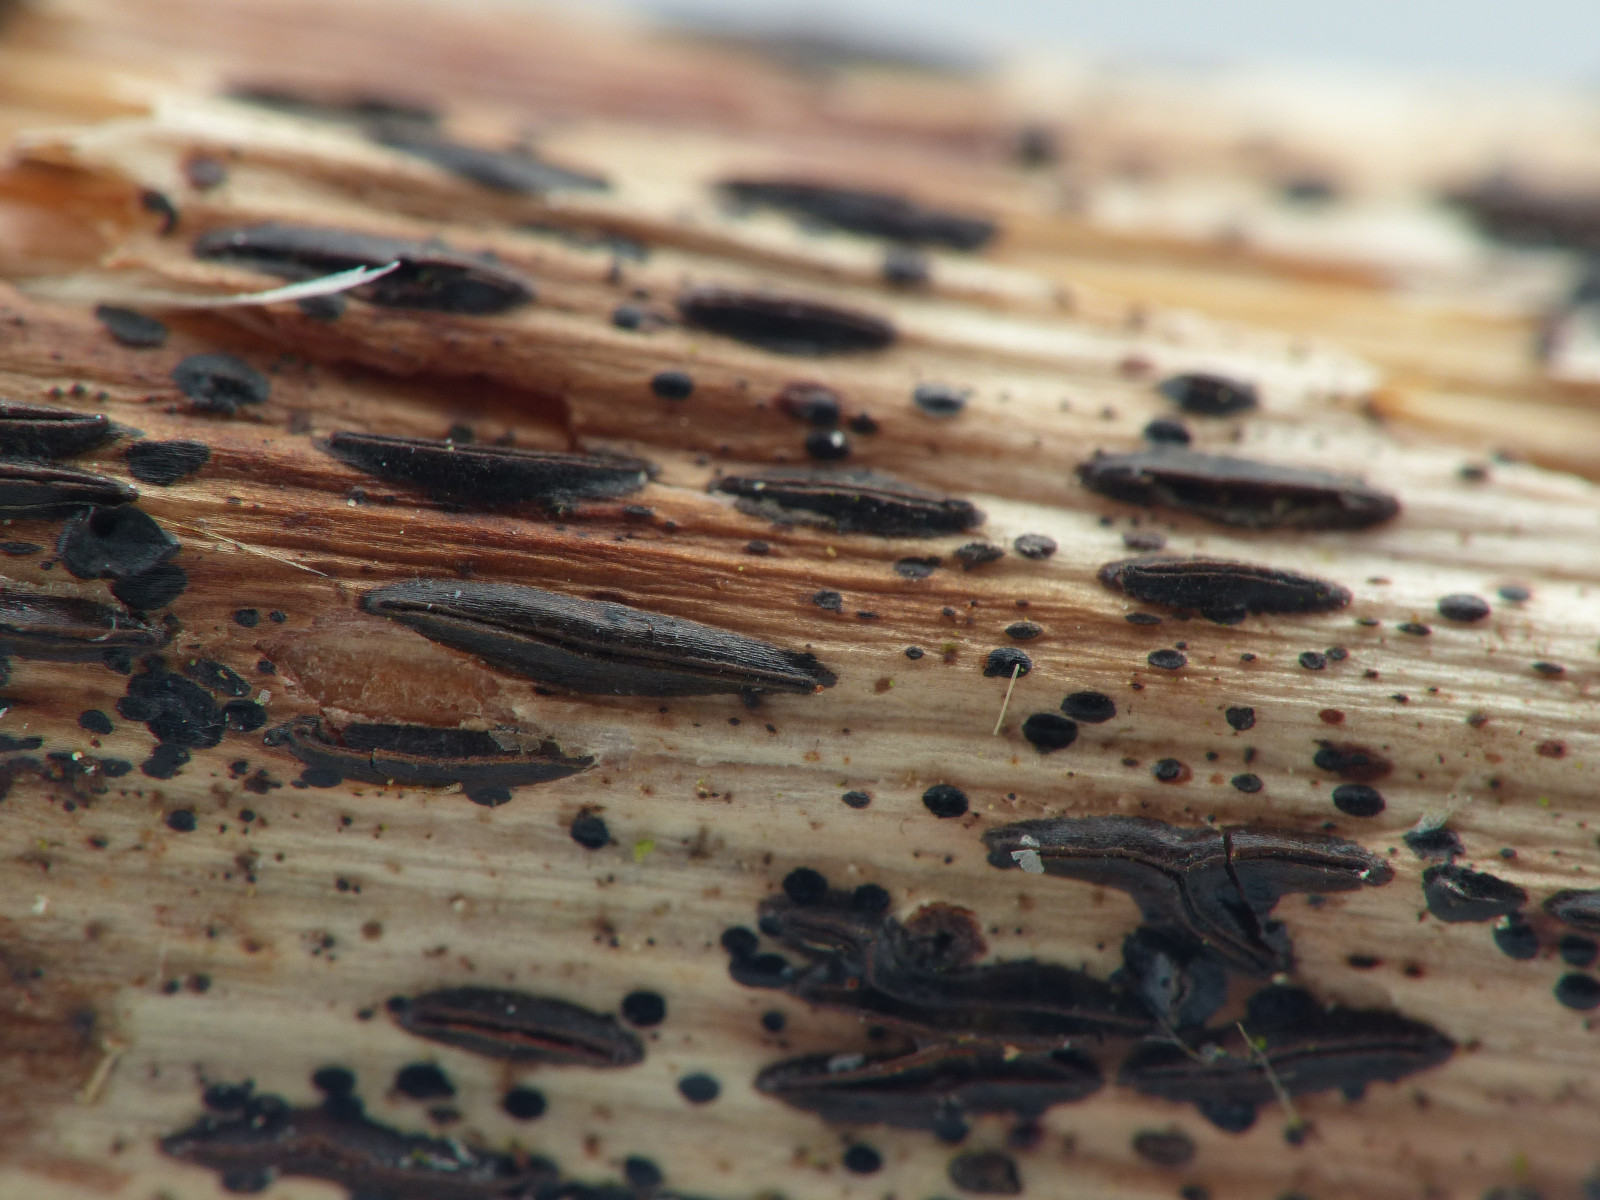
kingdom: Fungi
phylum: Ascomycota
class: Leotiomycetes
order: Rhytismatales
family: Rhytismataceae
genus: Hypoderma
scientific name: Hypoderma rubi
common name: brombær-fureplet
